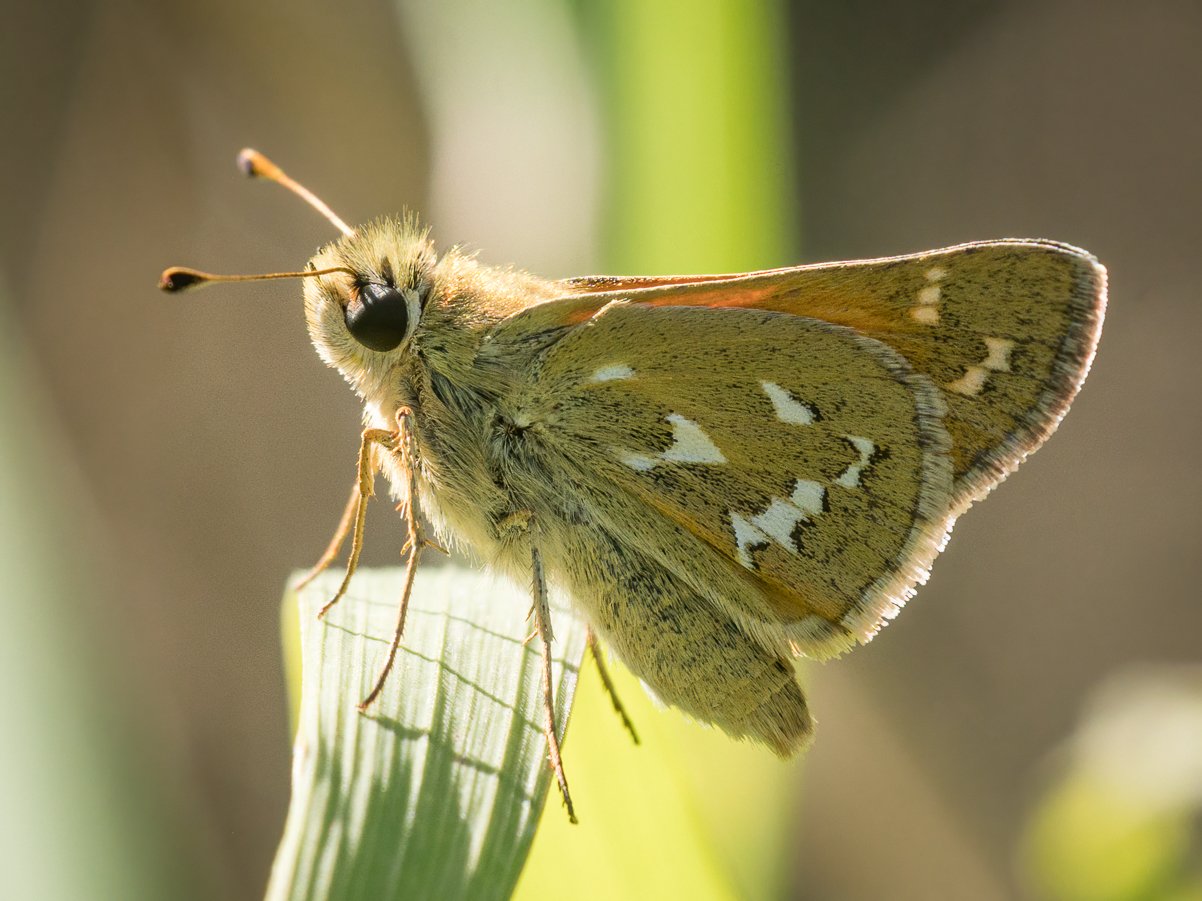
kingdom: Animalia
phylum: Arthropoda
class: Insecta
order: Lepidoptera
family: Hesperiidae
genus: Hesperia
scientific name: Hesperia comma
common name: Western Branded Skipper
